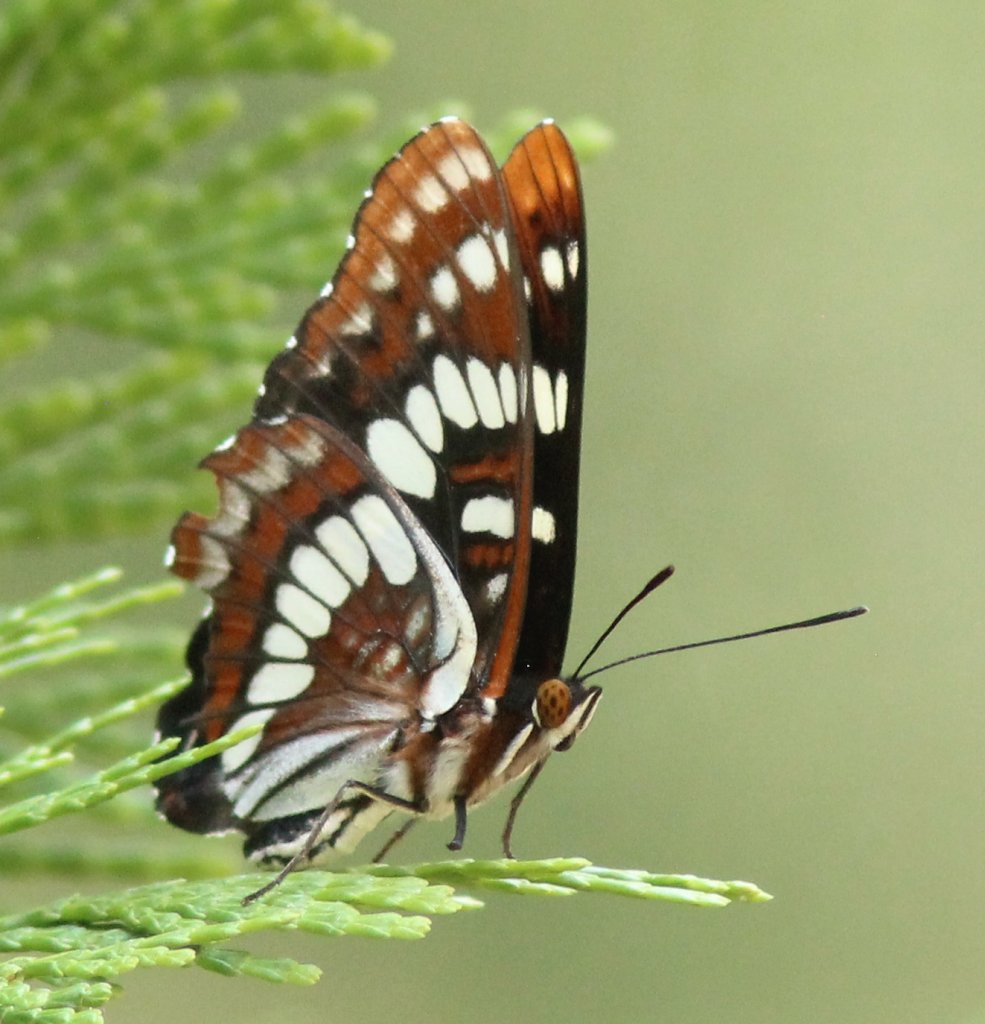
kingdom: Animalia
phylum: Arthropoda
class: Insecta
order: Lepidoptera
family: Nymphalidae
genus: Limenitis
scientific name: Limenitis lorquini
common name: Lorquin's Admiral
